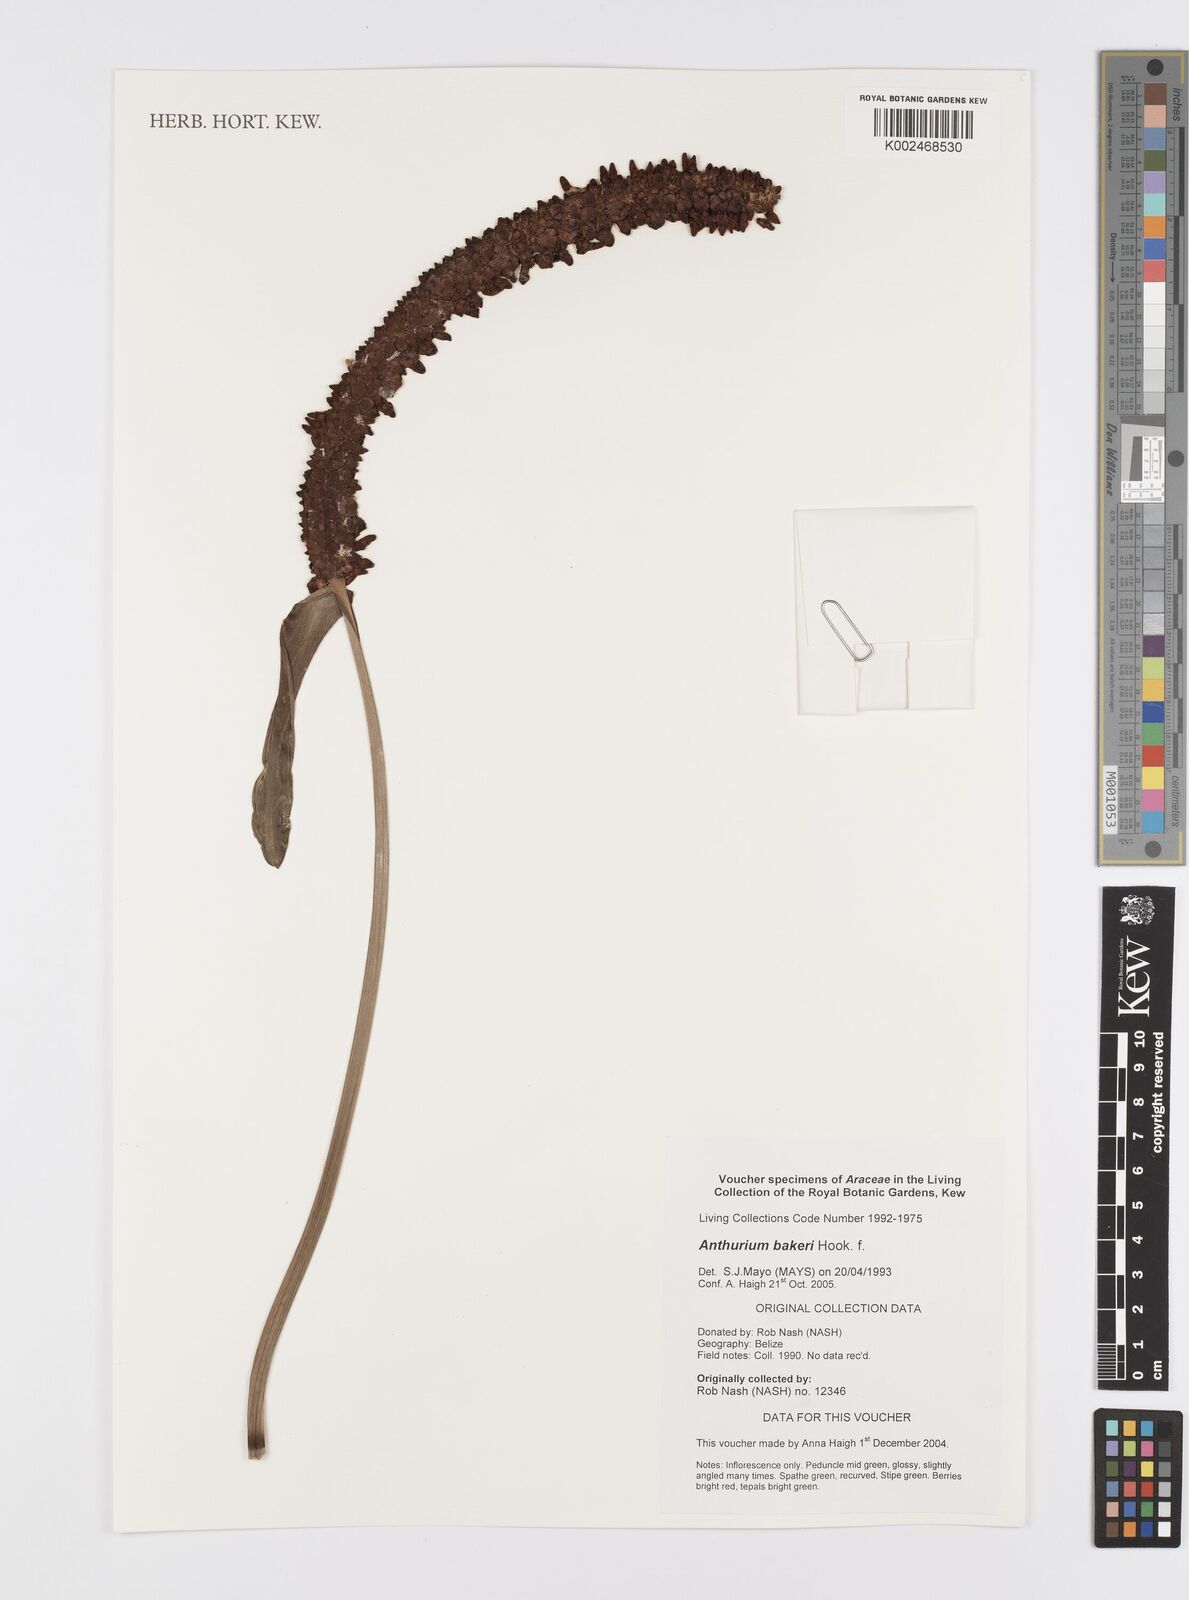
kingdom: Plantae
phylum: Tracheophyta
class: Liliopsida
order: Alismatales
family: Araceae
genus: Anthurium
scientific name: Anthurium bakeri
